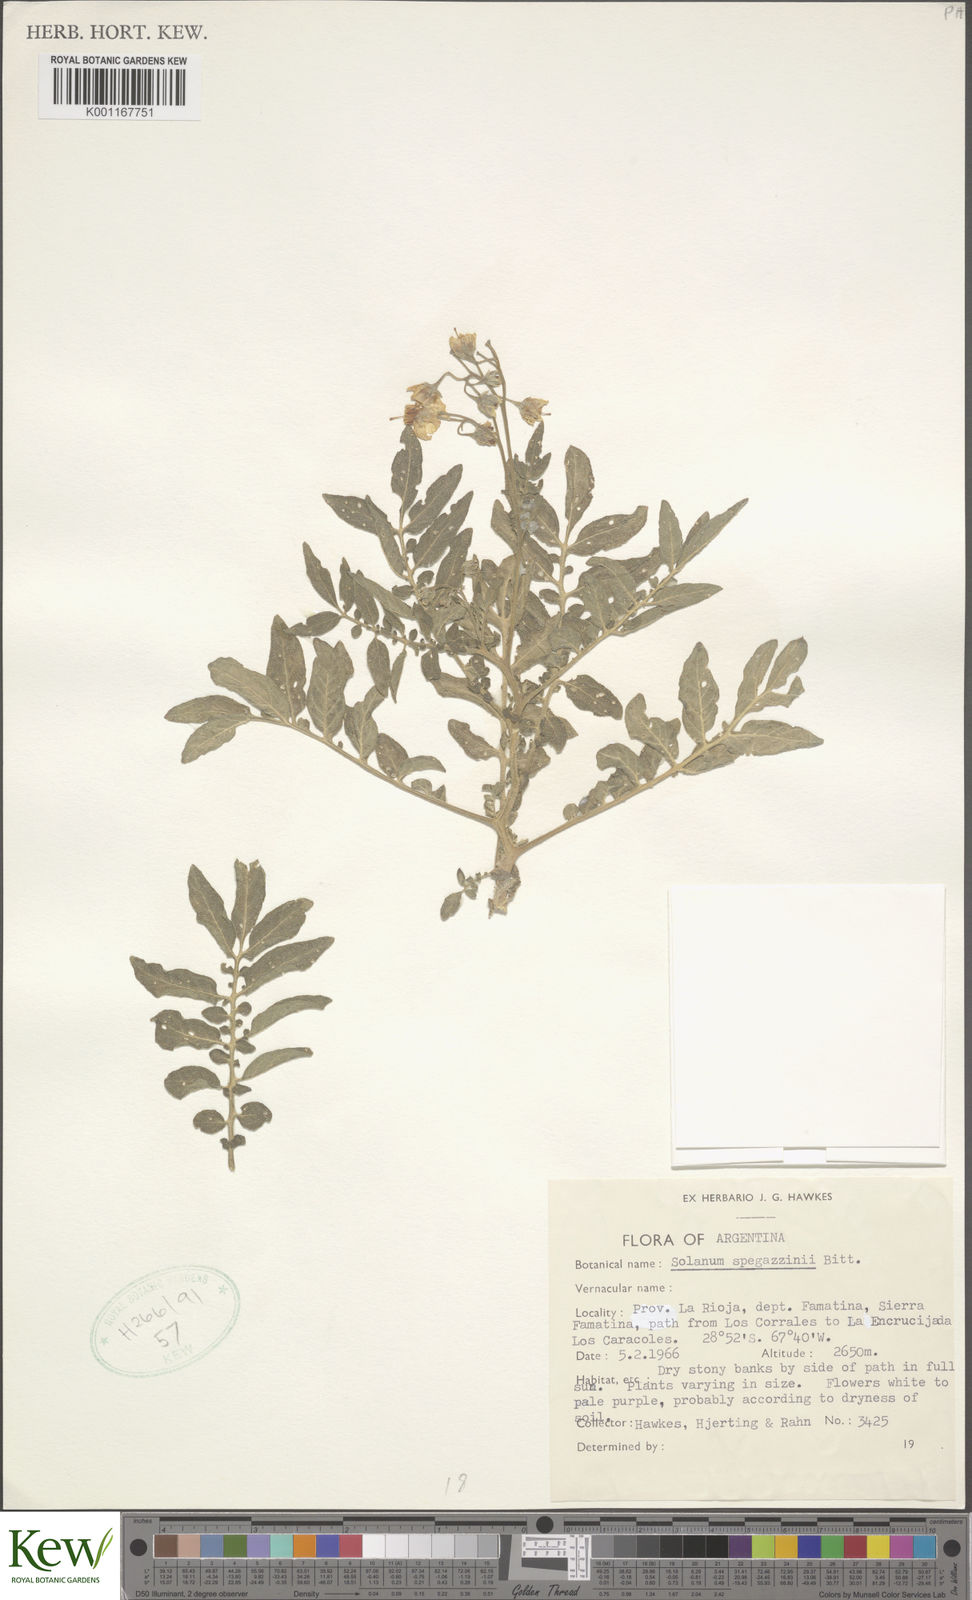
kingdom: Plantae
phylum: Tracheophyta
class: Magnoliopsida
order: Solanales
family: Solanaceae
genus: Solanum
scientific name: Solanum brevicaule
